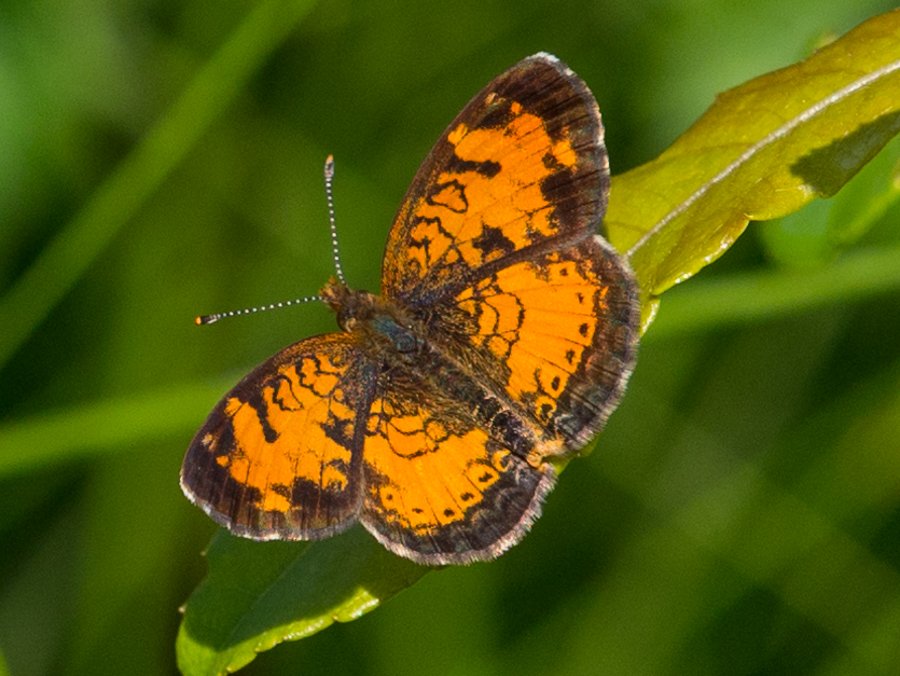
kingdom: Animalia
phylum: Arthropoda
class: Insecta
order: Lepidoptera
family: Nymphalidae
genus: Phyciodes
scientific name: Phyciodes tharos
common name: Northern Crescent
